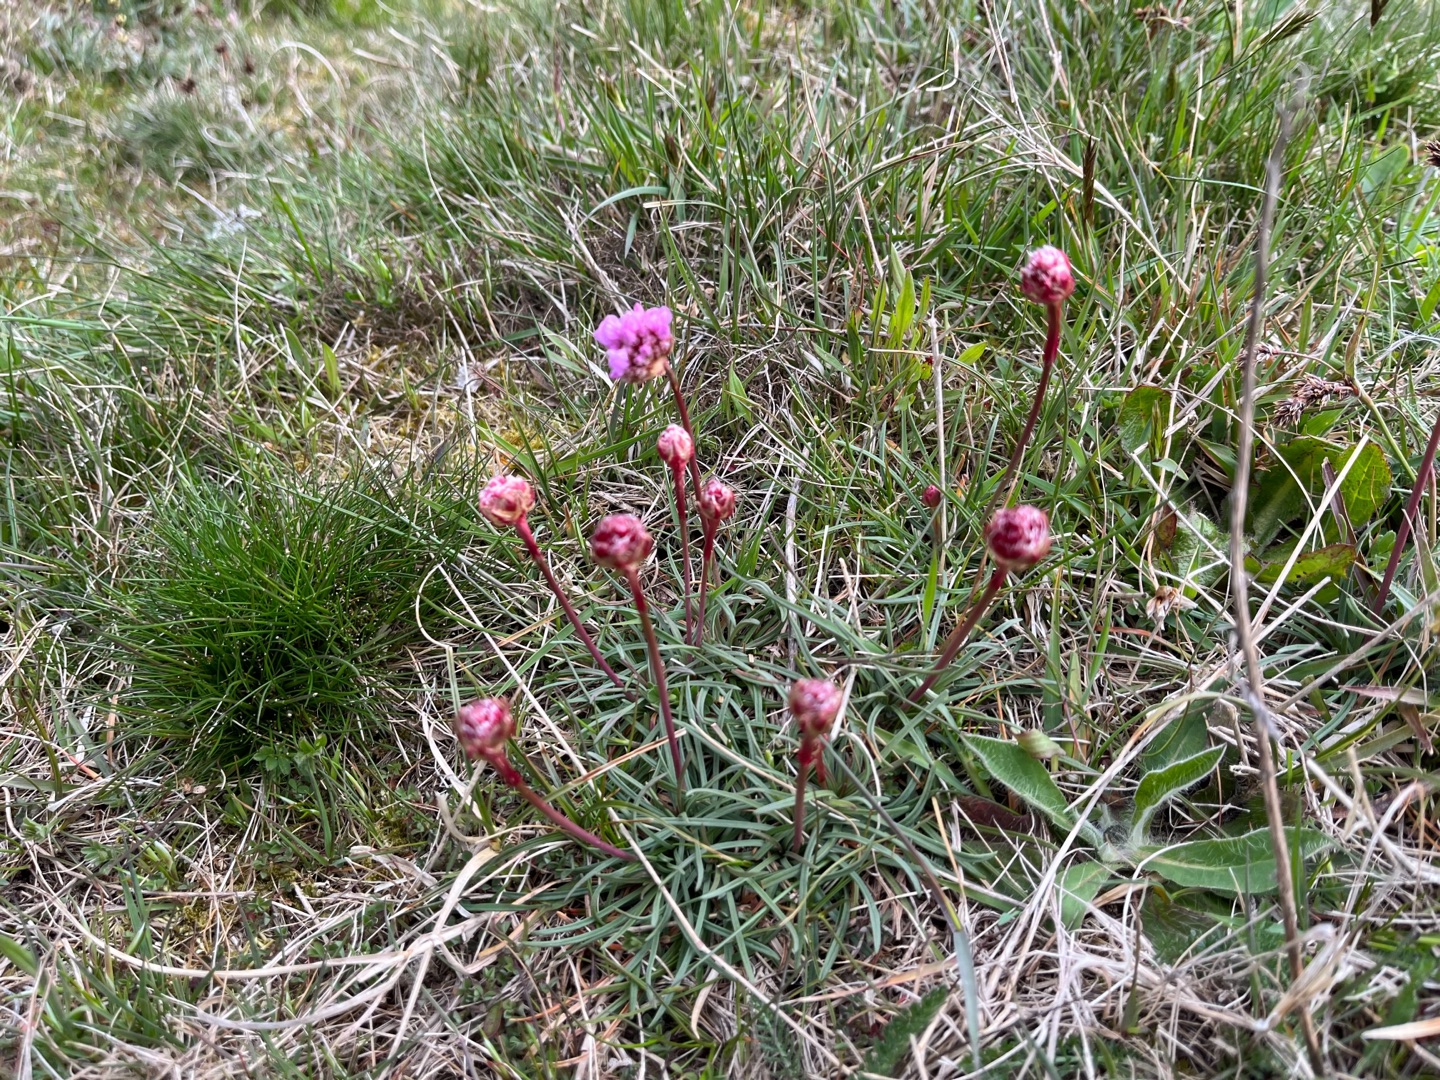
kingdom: Plantae
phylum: Tracheophyta
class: Magnoliopsida
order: Caryophyllales
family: Plumbaginaceae
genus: Armeria
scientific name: Armeria maritima
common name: Engelskgræs
